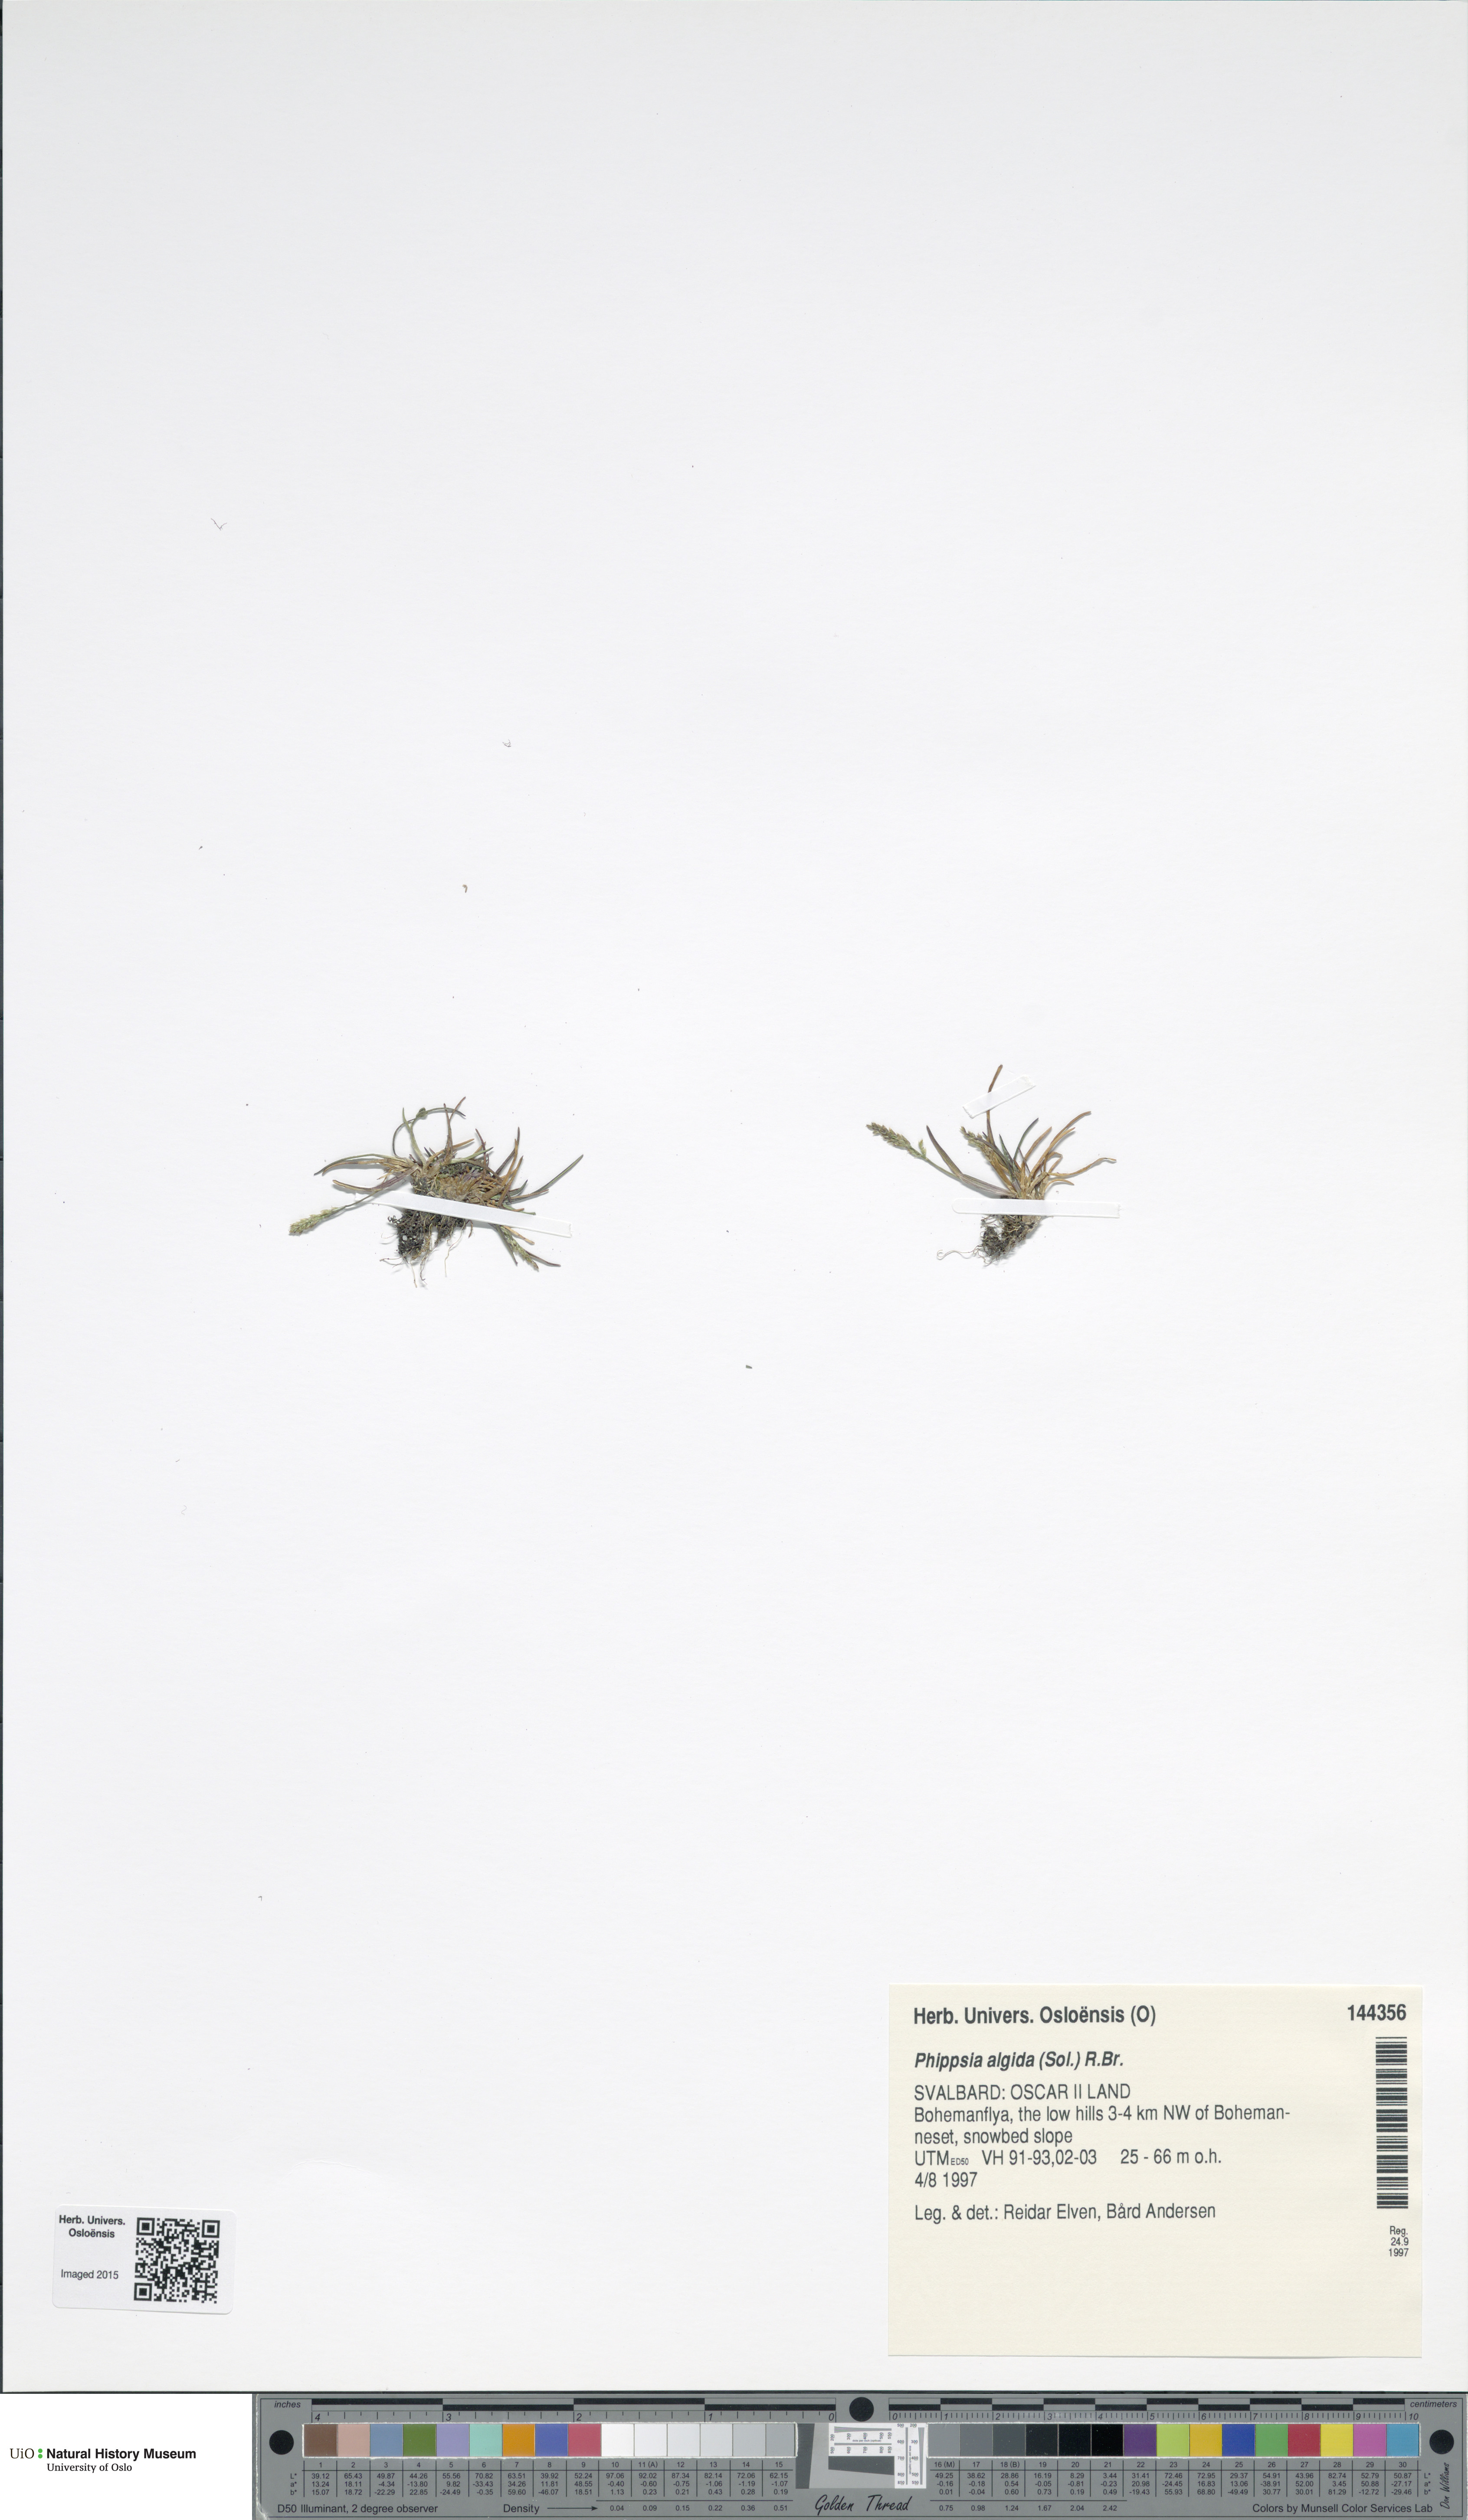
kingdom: Plantae
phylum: Tracheophyta
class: Liliopsida
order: Poales
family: Poaceae
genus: Phippsia
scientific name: Phippsia algida
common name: Ice grass
